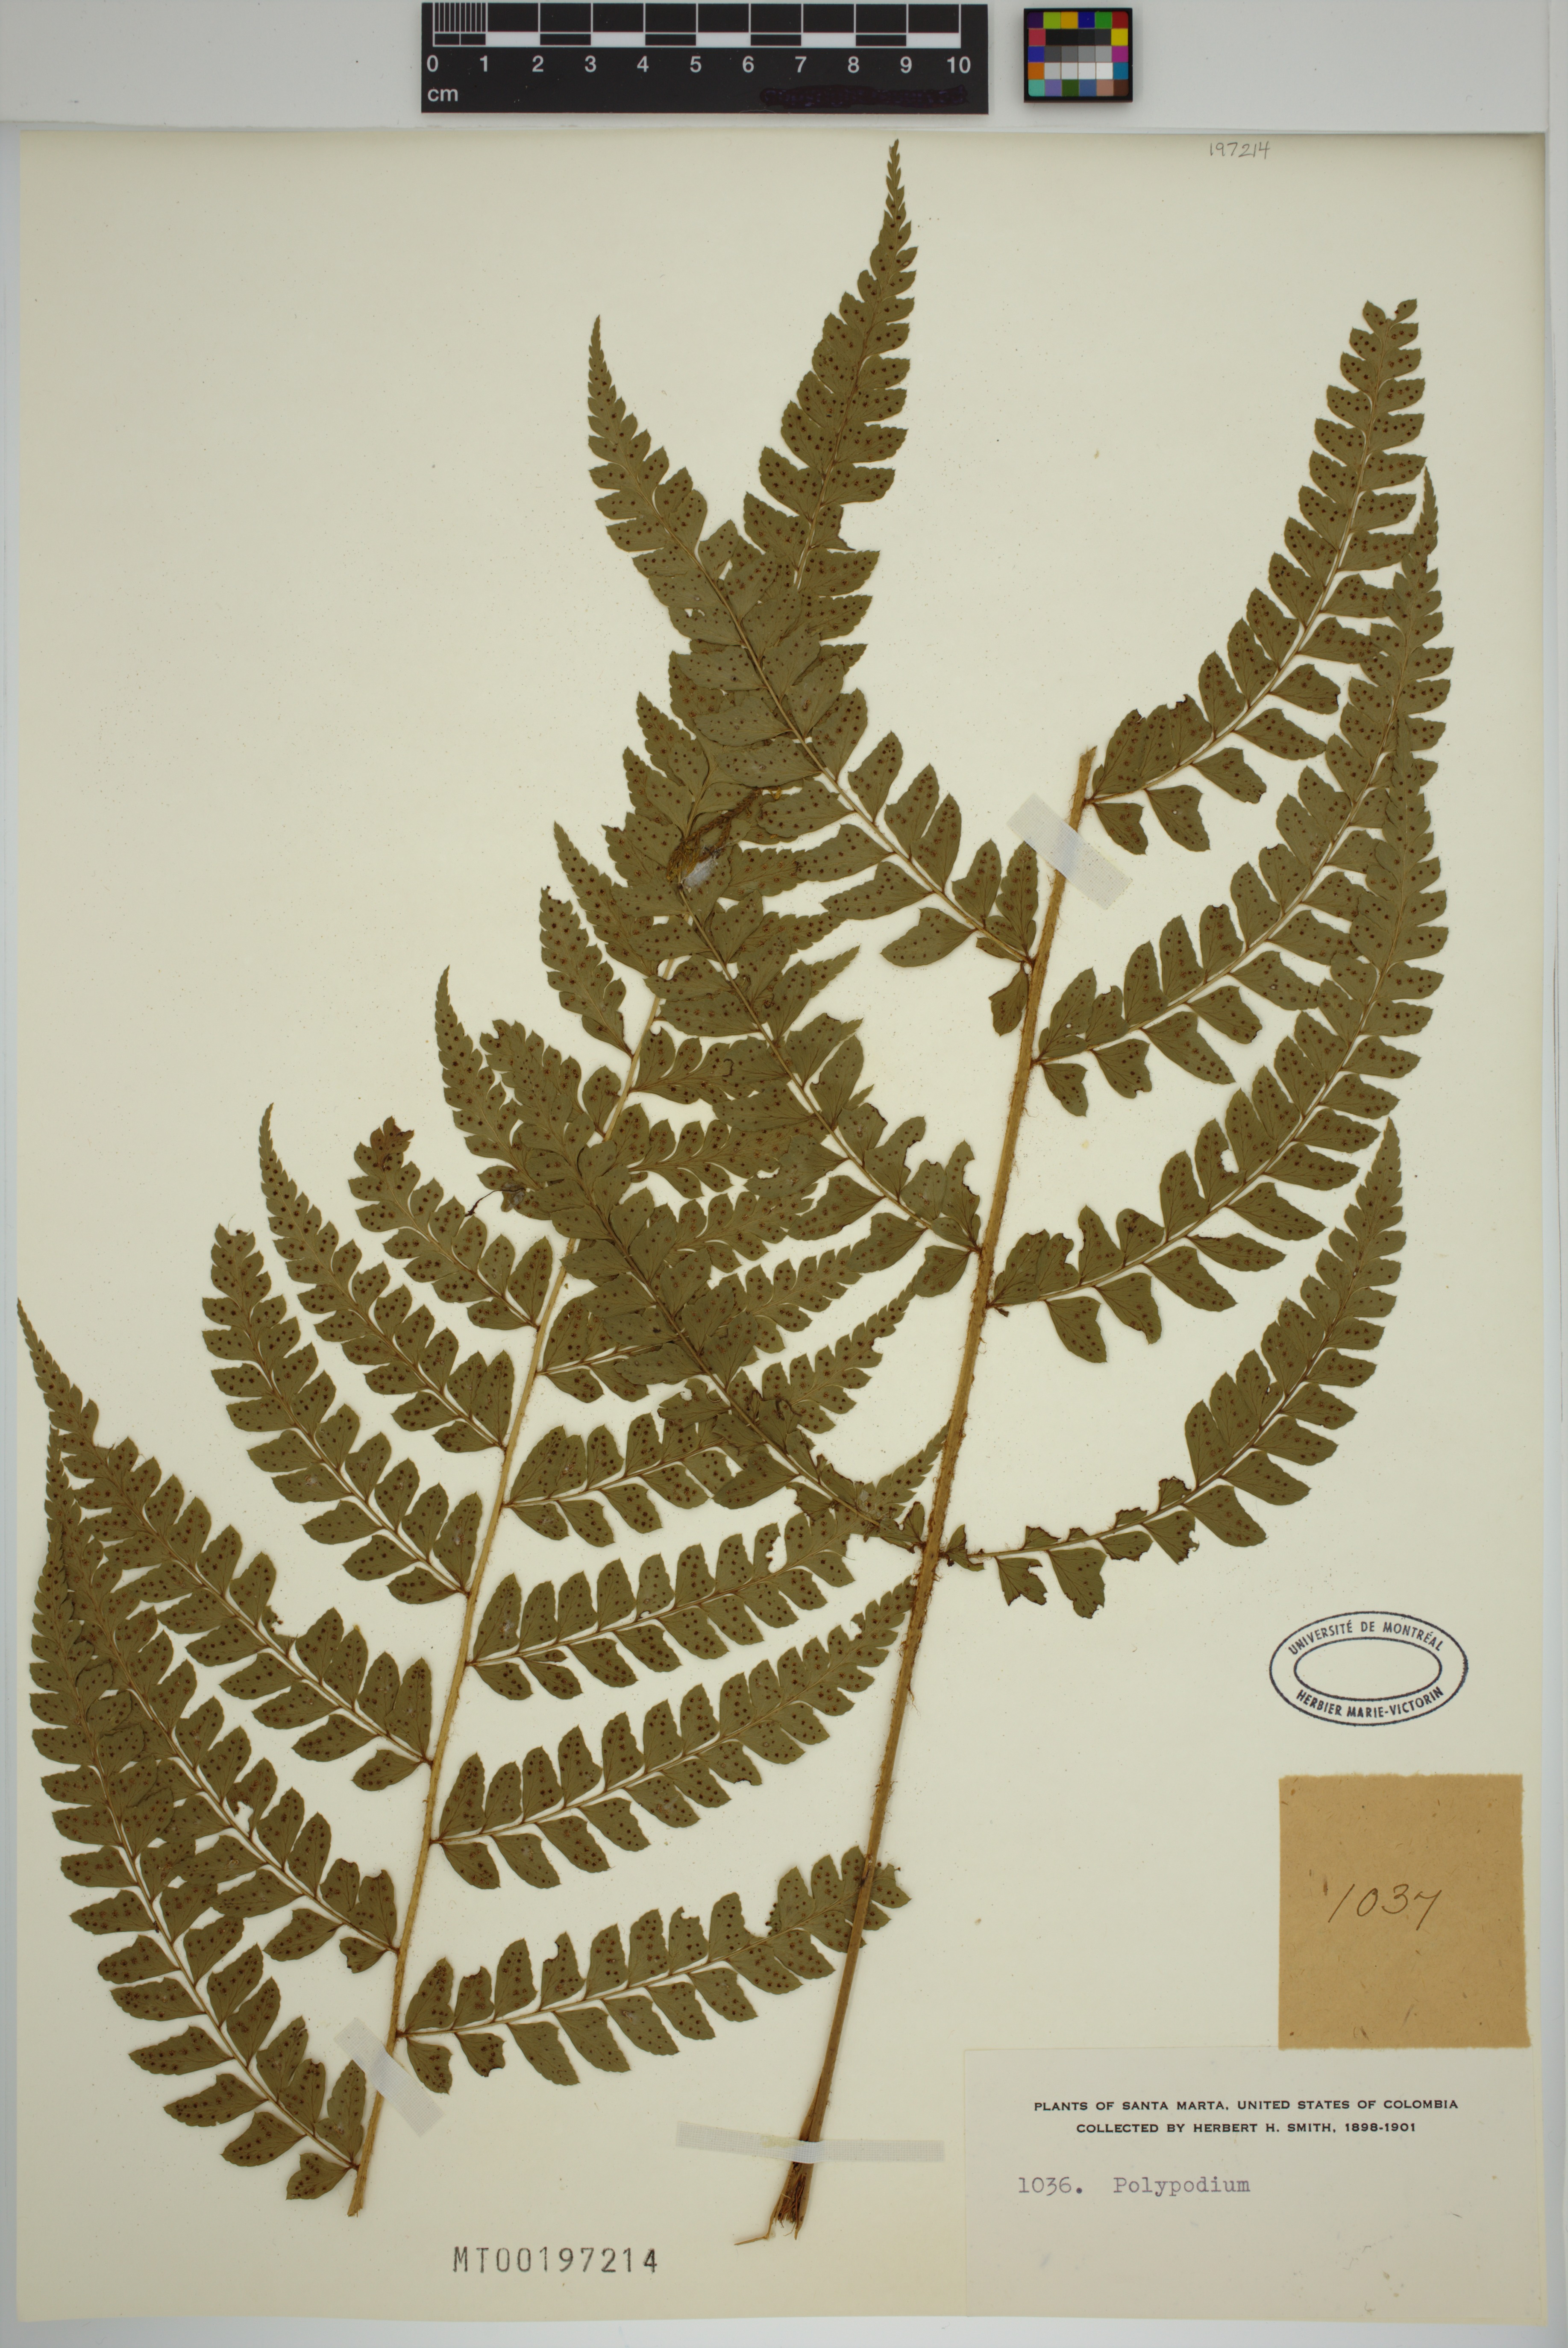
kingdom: Plantae
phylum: Tracheophyta
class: Polypodiopsida
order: Polypodiales
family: Polypodiaceae
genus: Polypodium
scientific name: Polypodium
